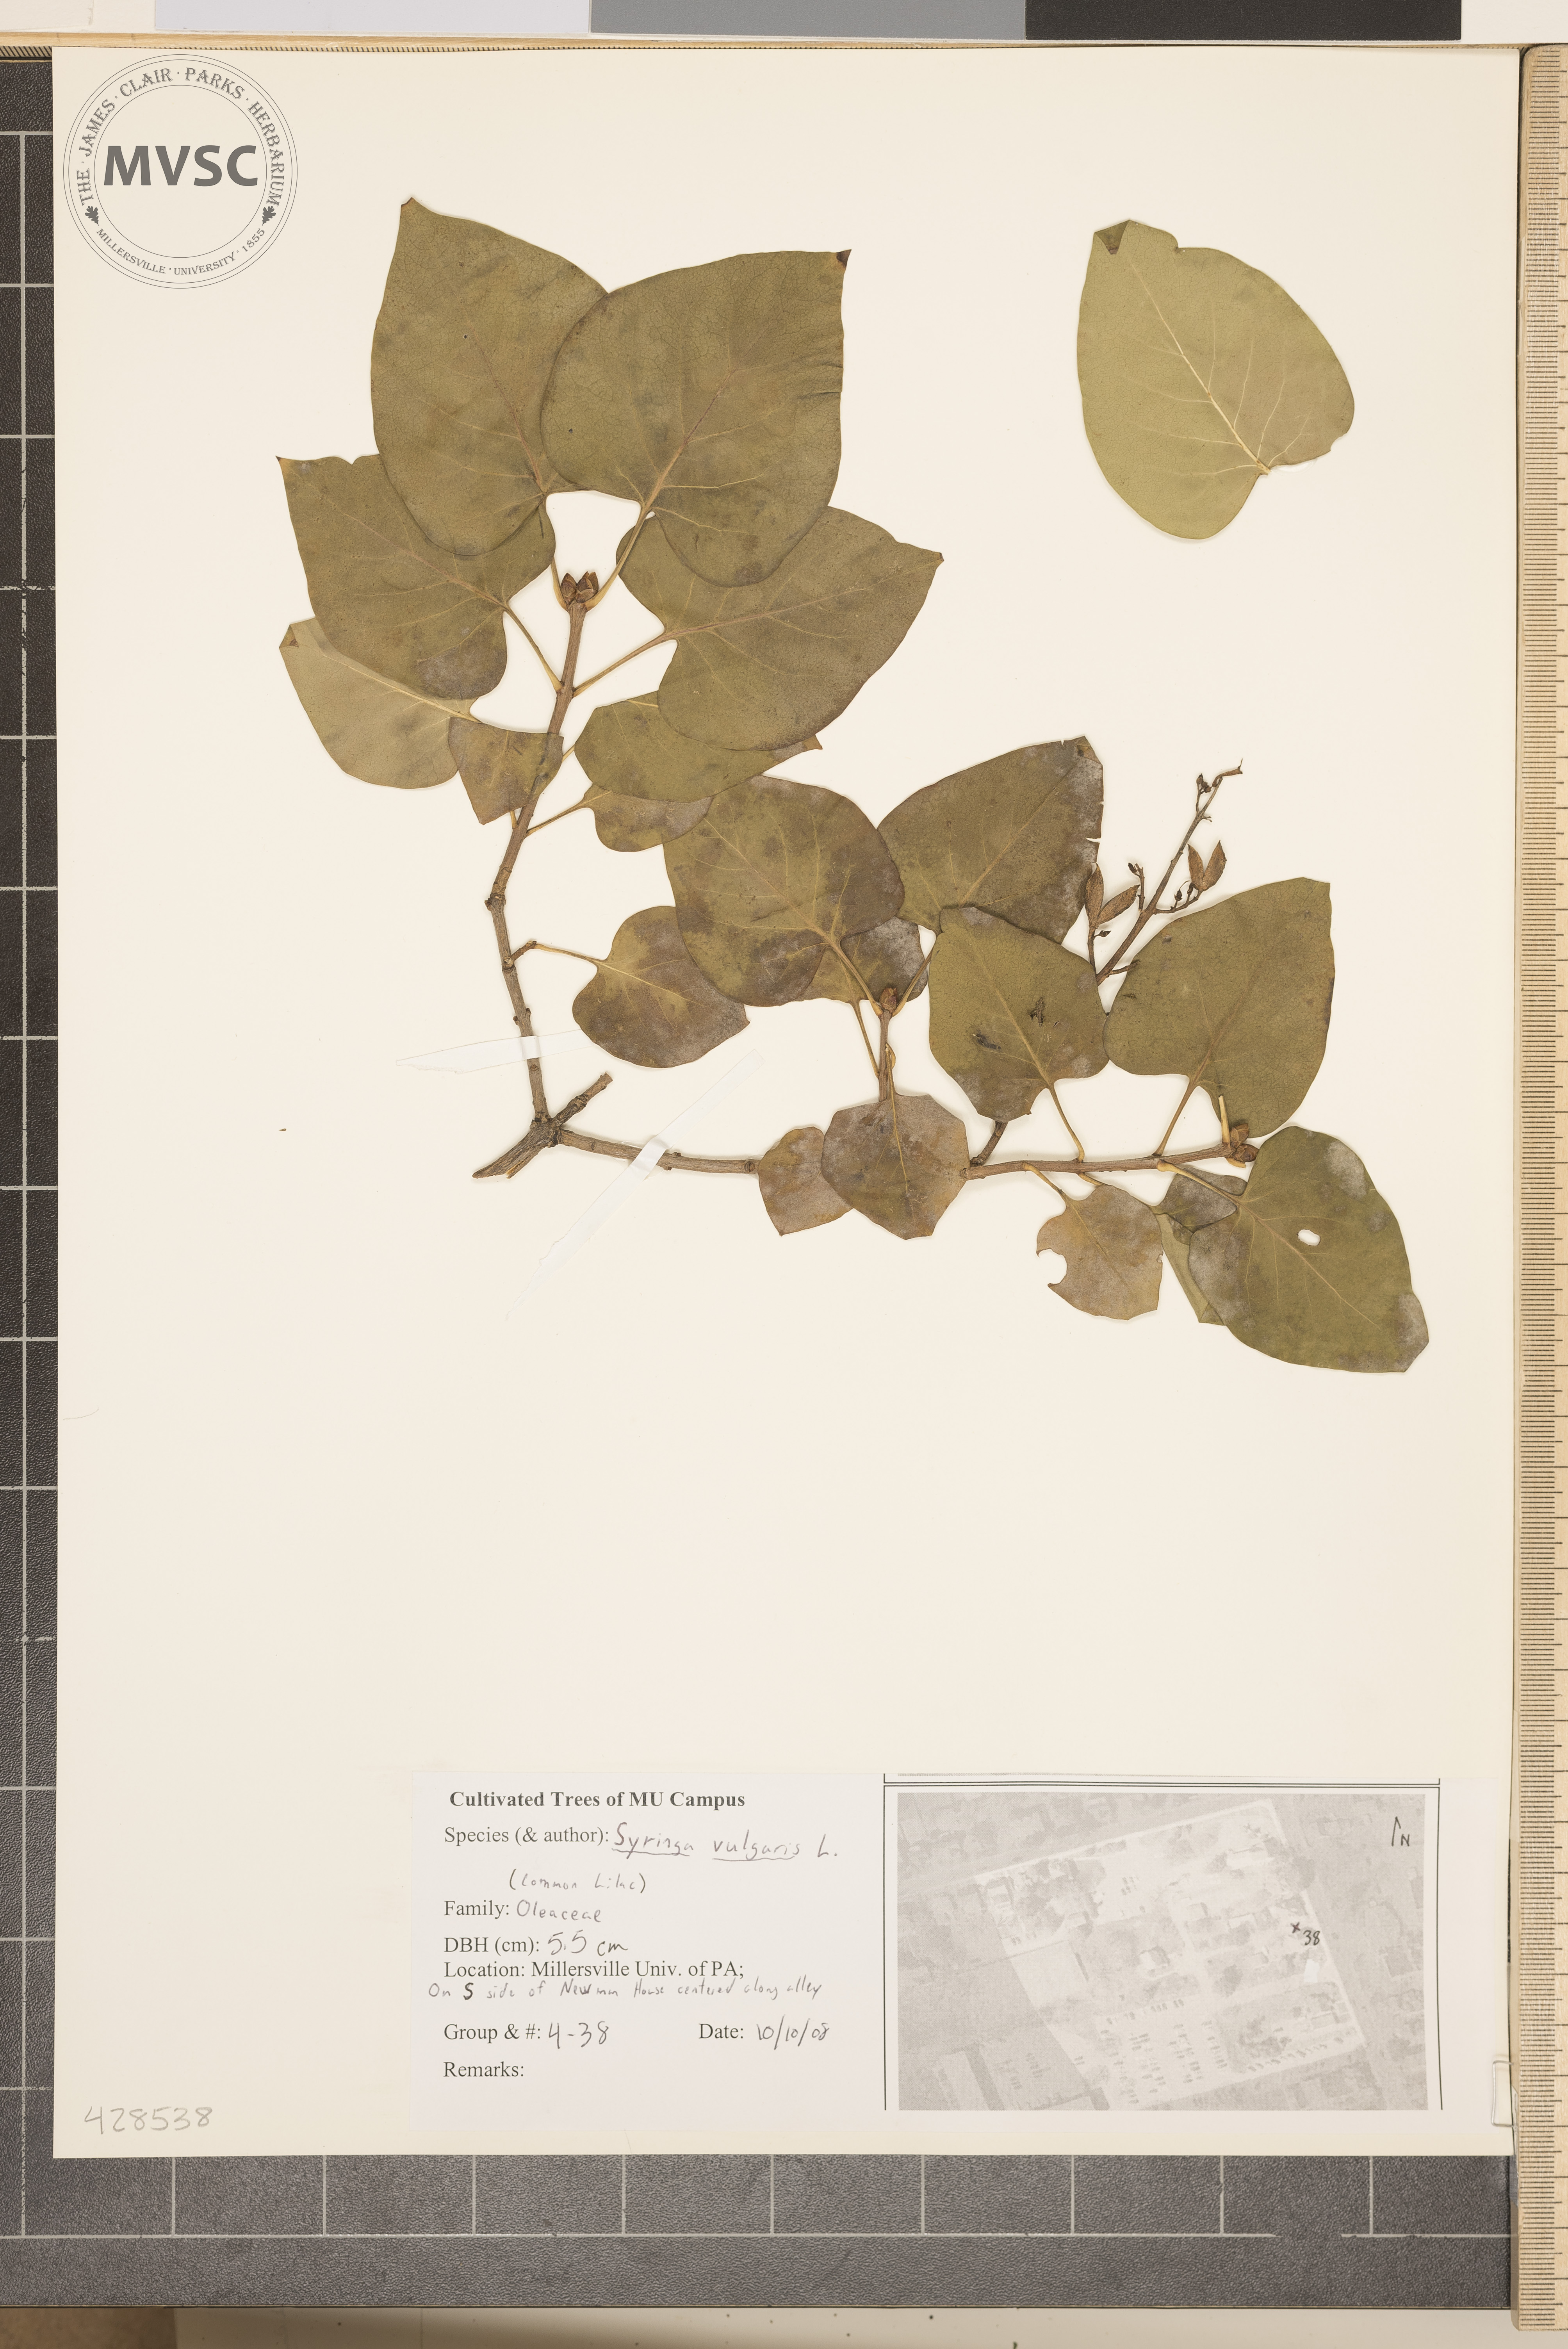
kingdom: Plantae
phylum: Tracheophyta
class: Magnoliopsida
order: Lamiales
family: Oleaceae
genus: Syringa
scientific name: Syringa vulgaris
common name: Common Lilac
